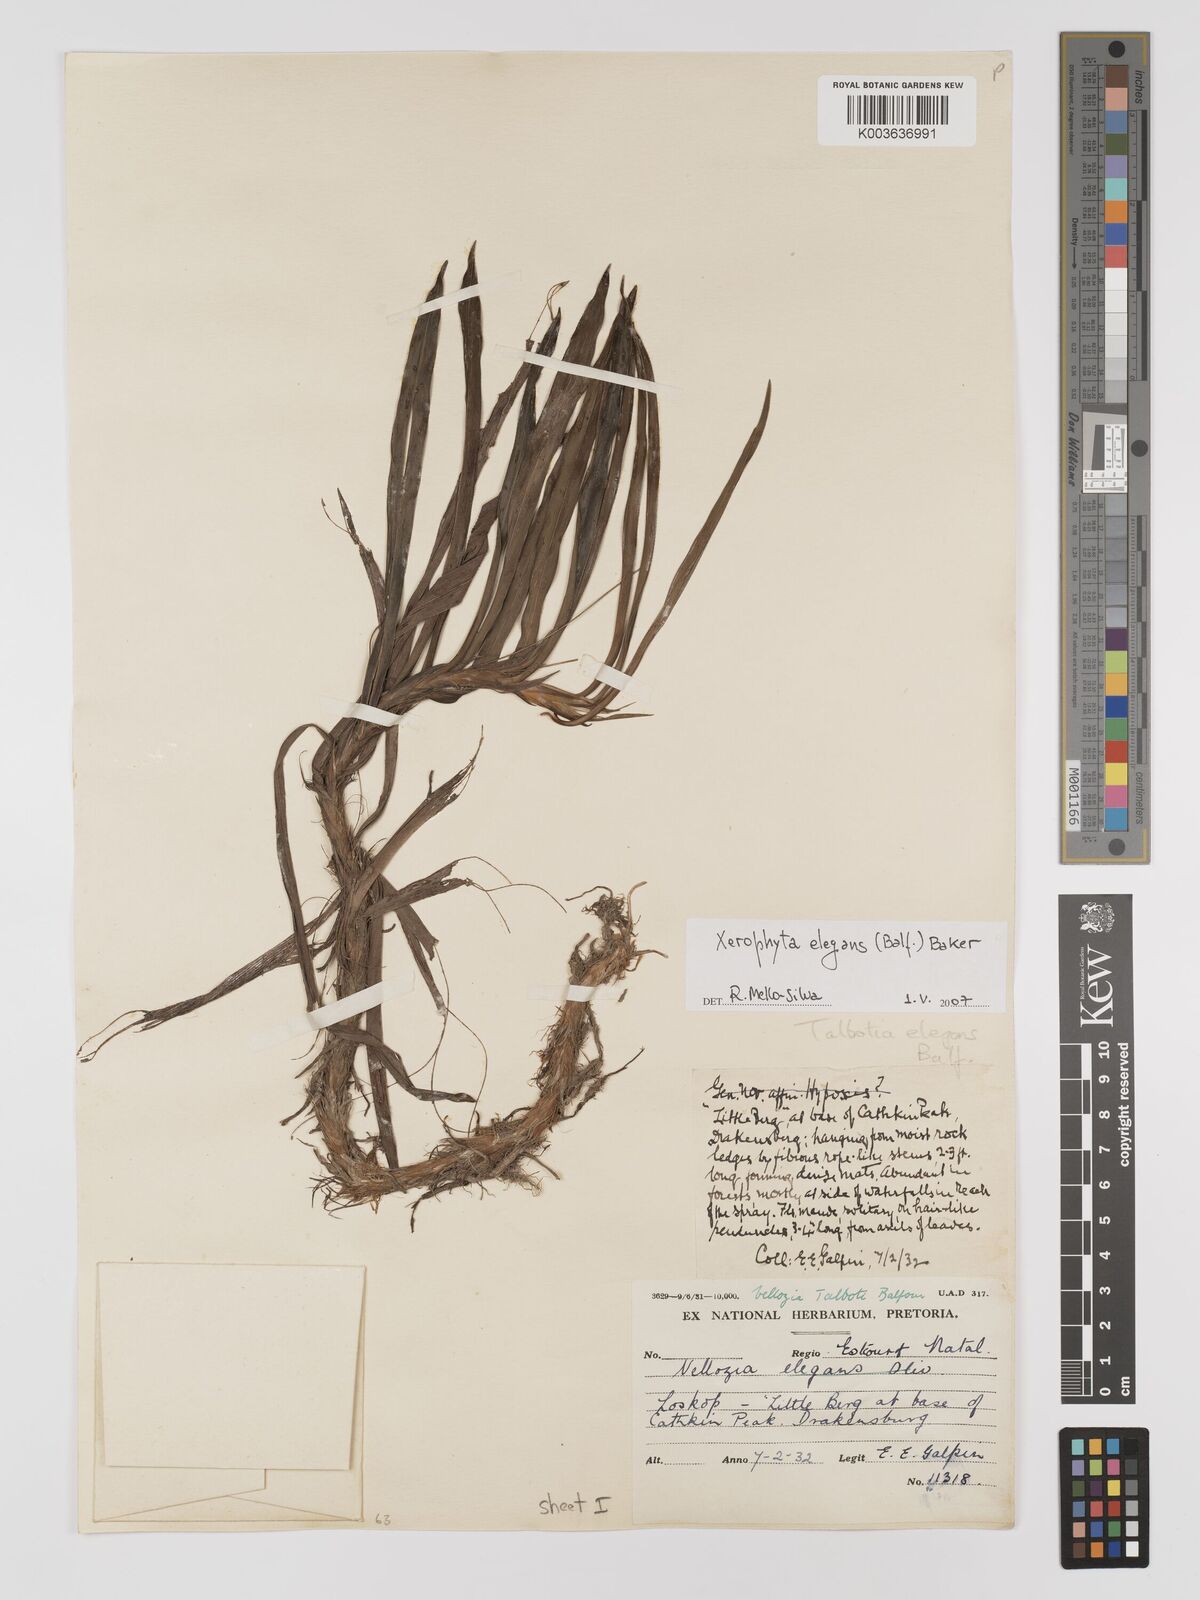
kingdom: Plantae
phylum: Tracheophyta
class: Liliopsida
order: Pandanales
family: Velloziaceae
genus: Xerophyta
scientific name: Xerophyta elegans
